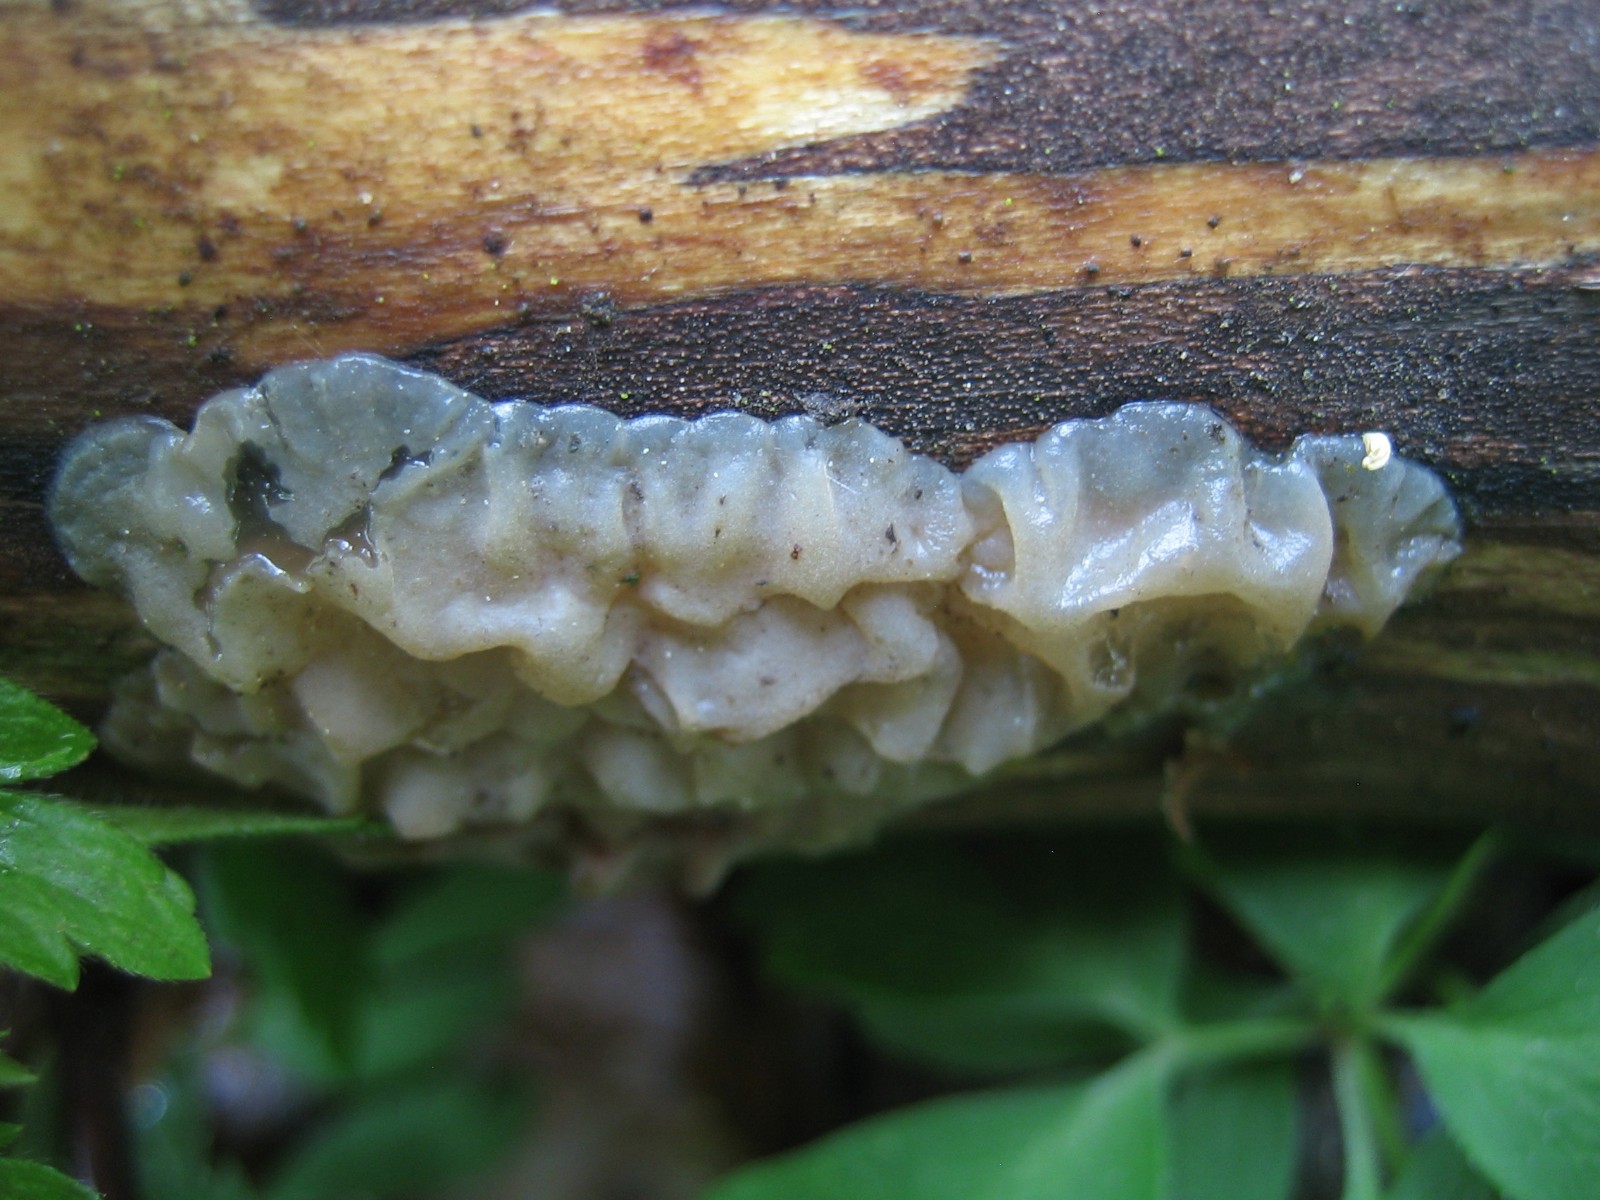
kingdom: Fungi
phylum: Basidiomycota
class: Agaricomycetes
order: Auriculariales
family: Auriculariaceae
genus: Exidia
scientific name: Exidia thuretiana
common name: hvidlig bævretop
